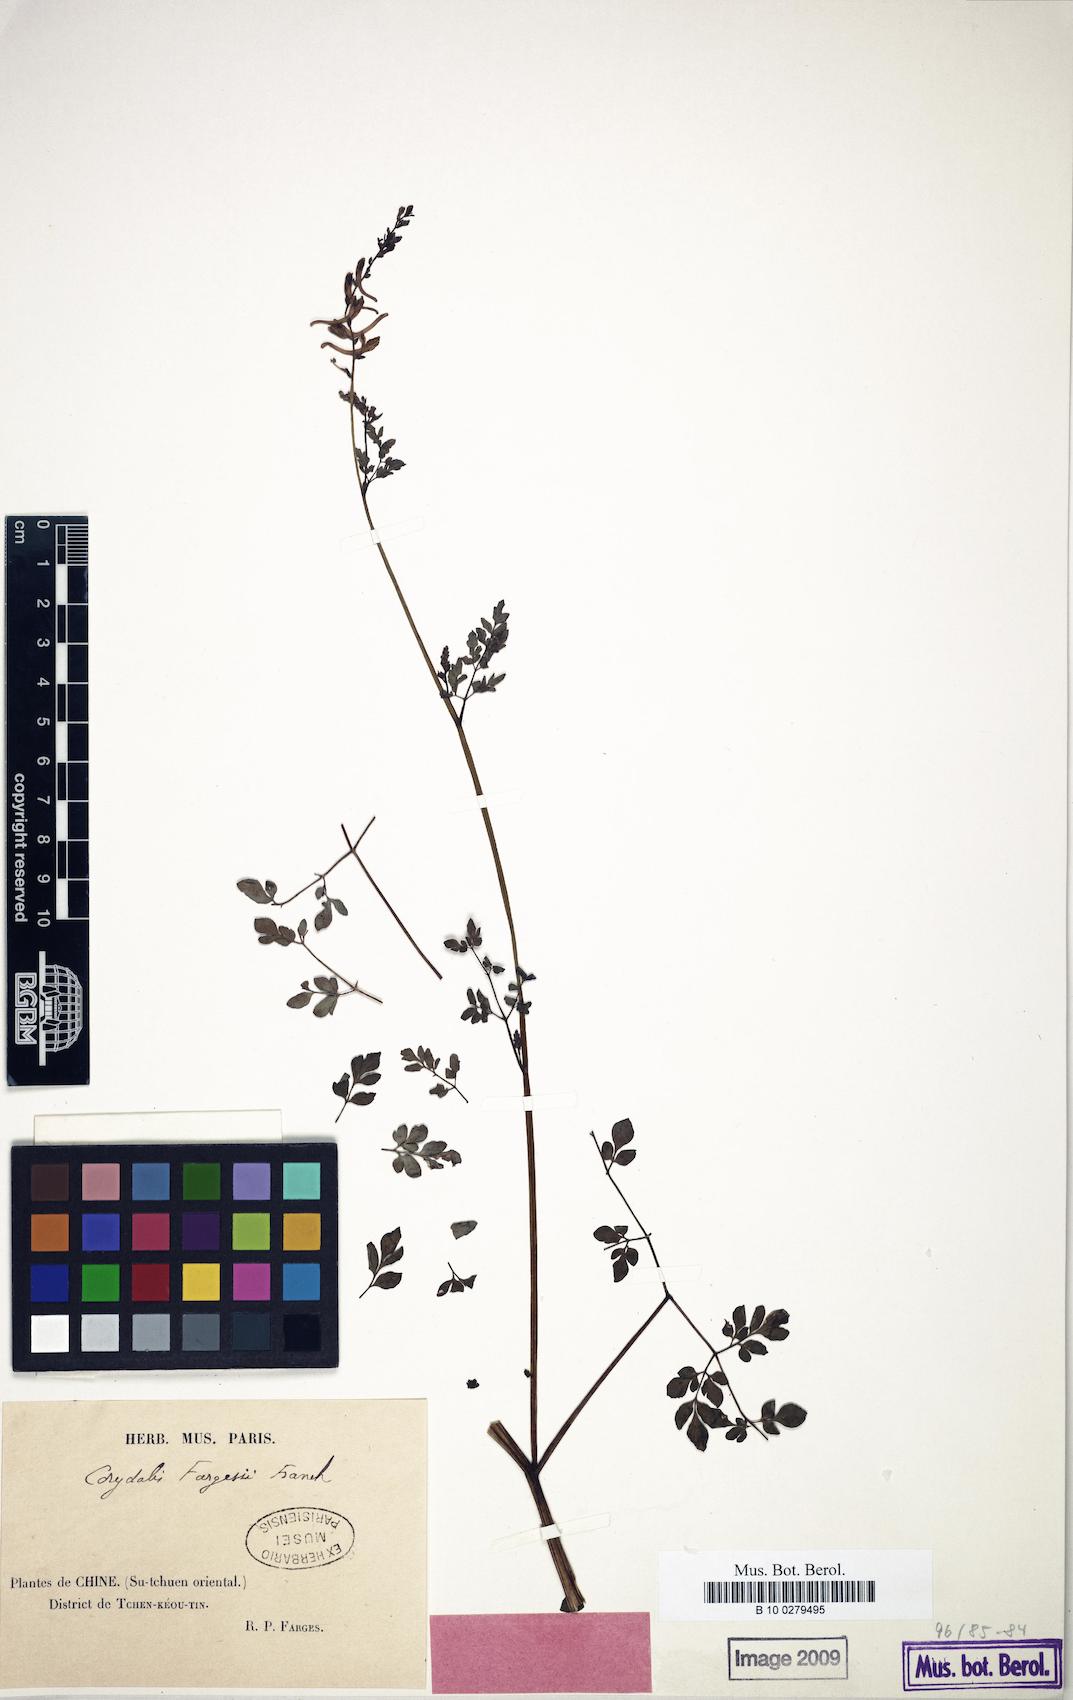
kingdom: Plantae
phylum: Tracheophyta
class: Magnoliopsida
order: Ranunculales
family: Papaveraceae
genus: Corydalis
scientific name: Corydalis fargesii
